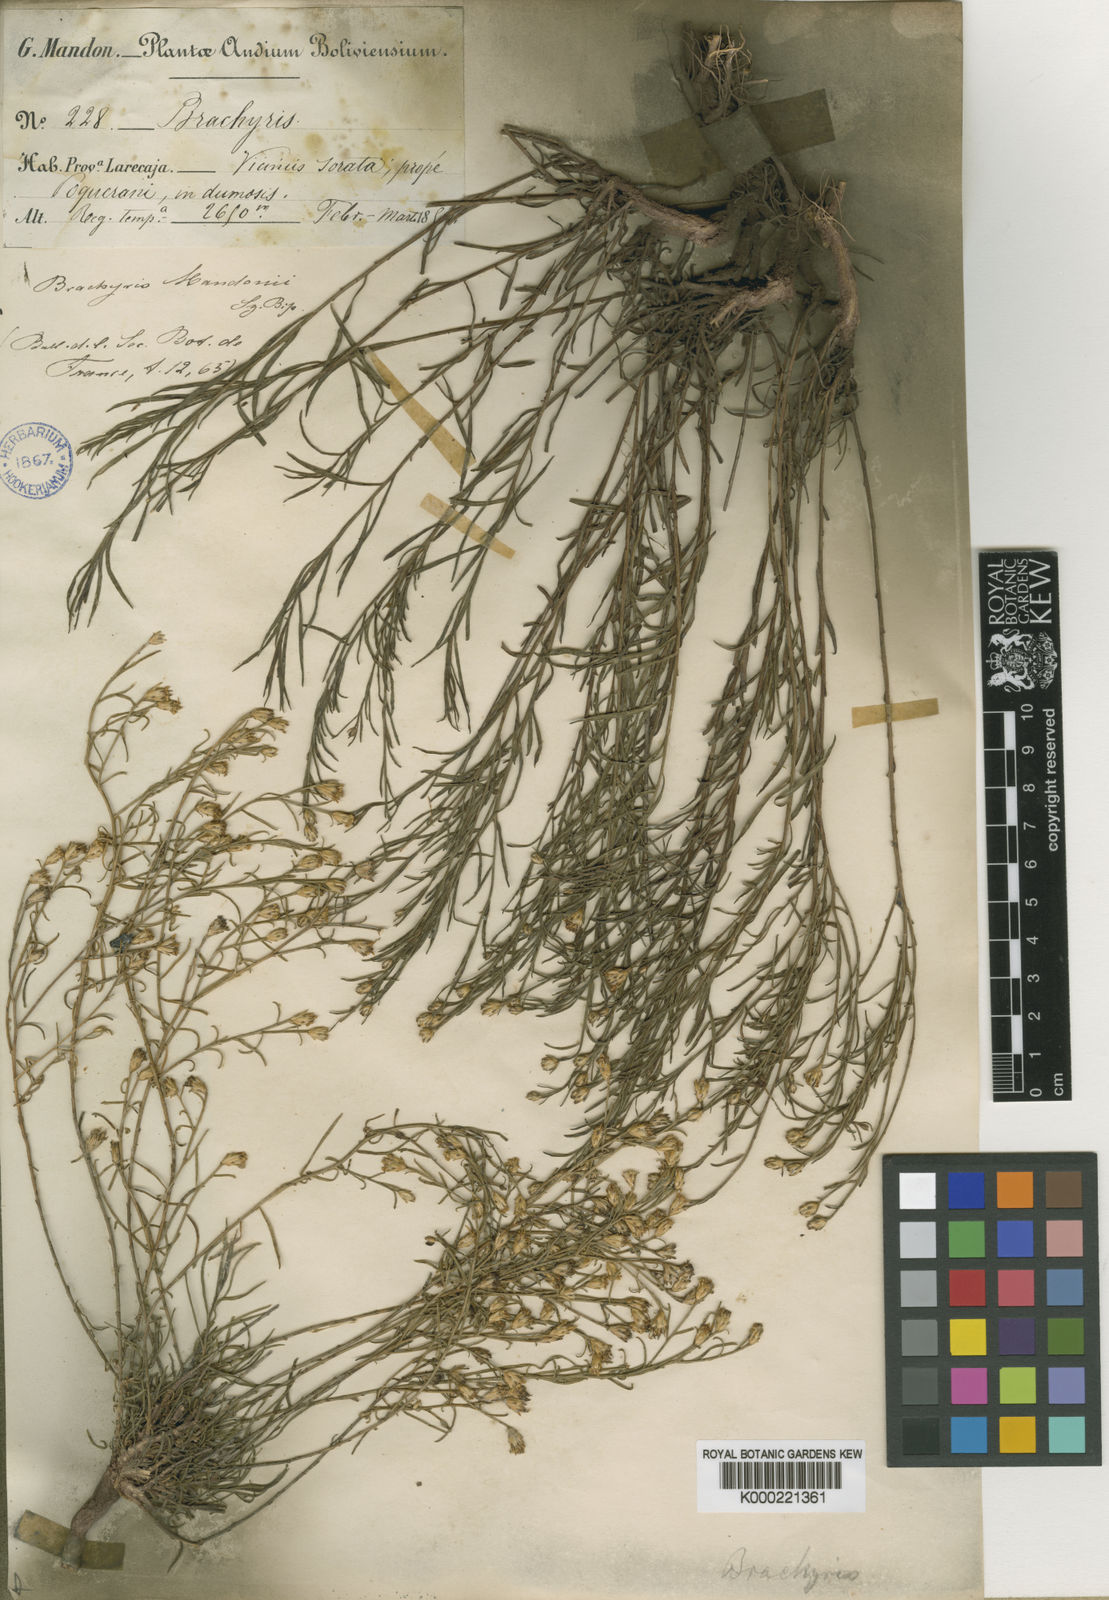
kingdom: Plantae
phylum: Tracheophyta
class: Magnoliopsida
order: Asterales
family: Asteraceae
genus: Gutierrezia
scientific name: Gutierrezia mandonii
